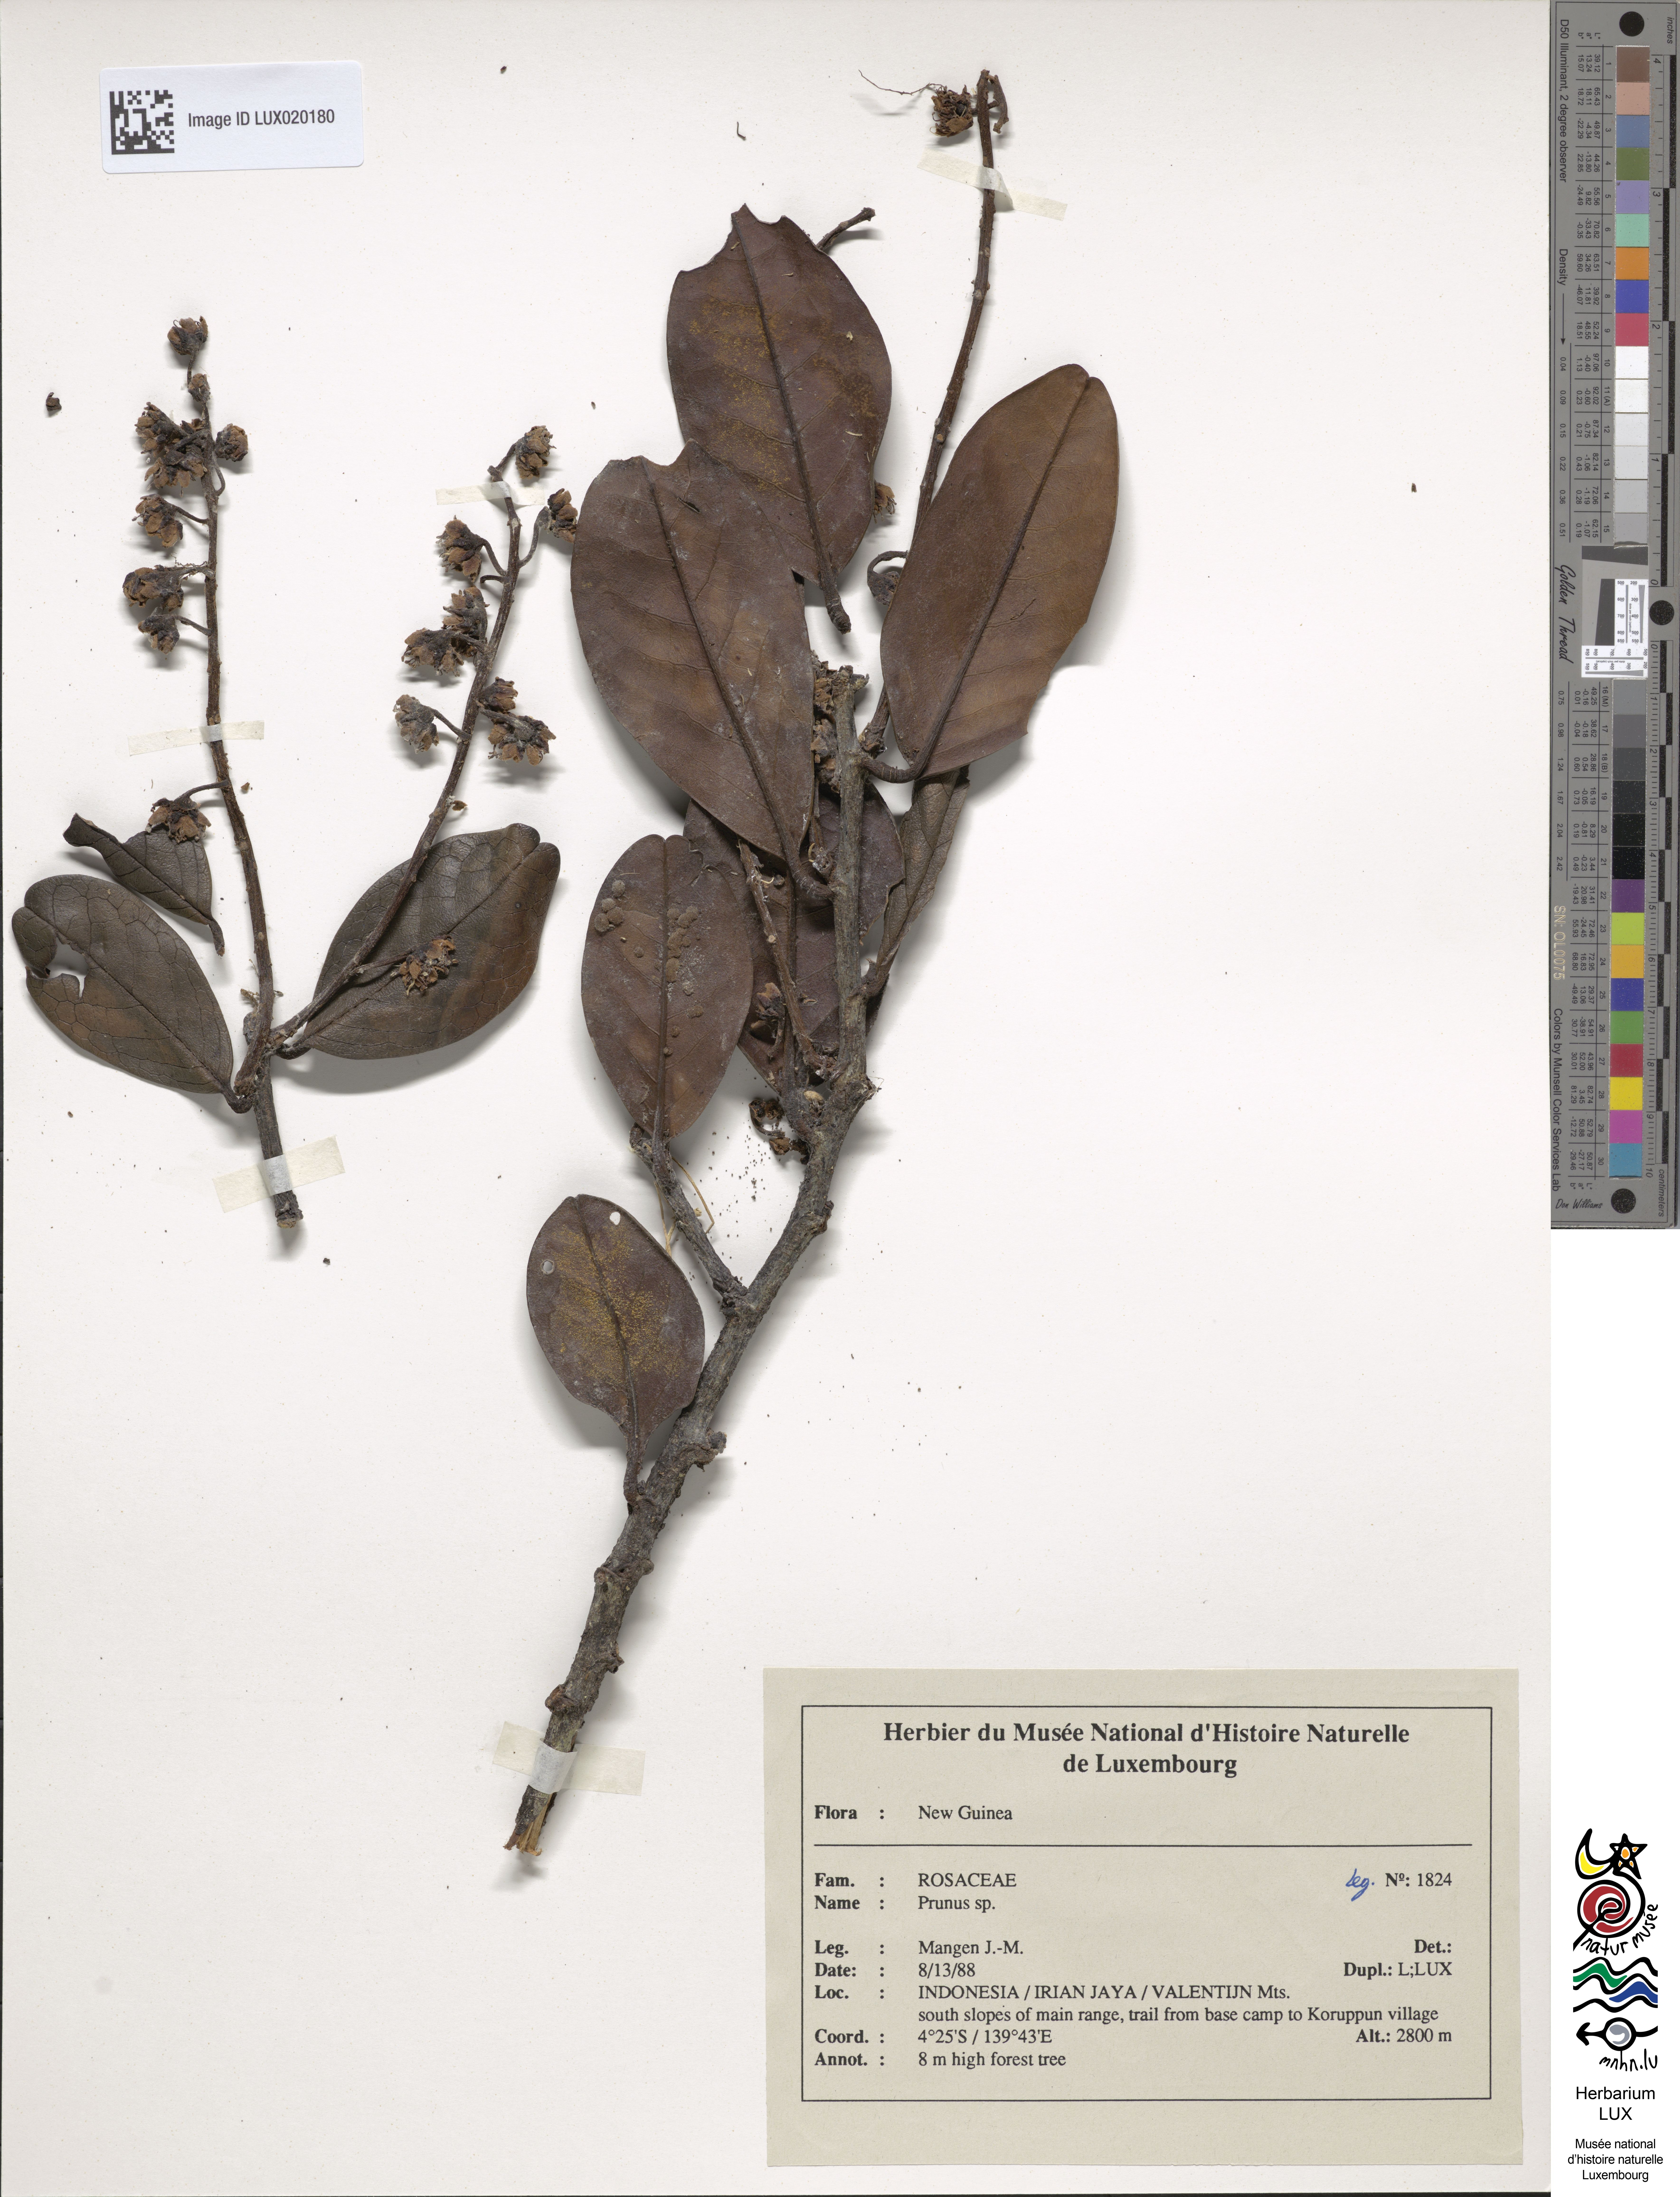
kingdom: Plantae
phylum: Tracheophyta
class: Magnoliopsida
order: Rosales
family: Rosaceae
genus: Prunus
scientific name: Prunus
